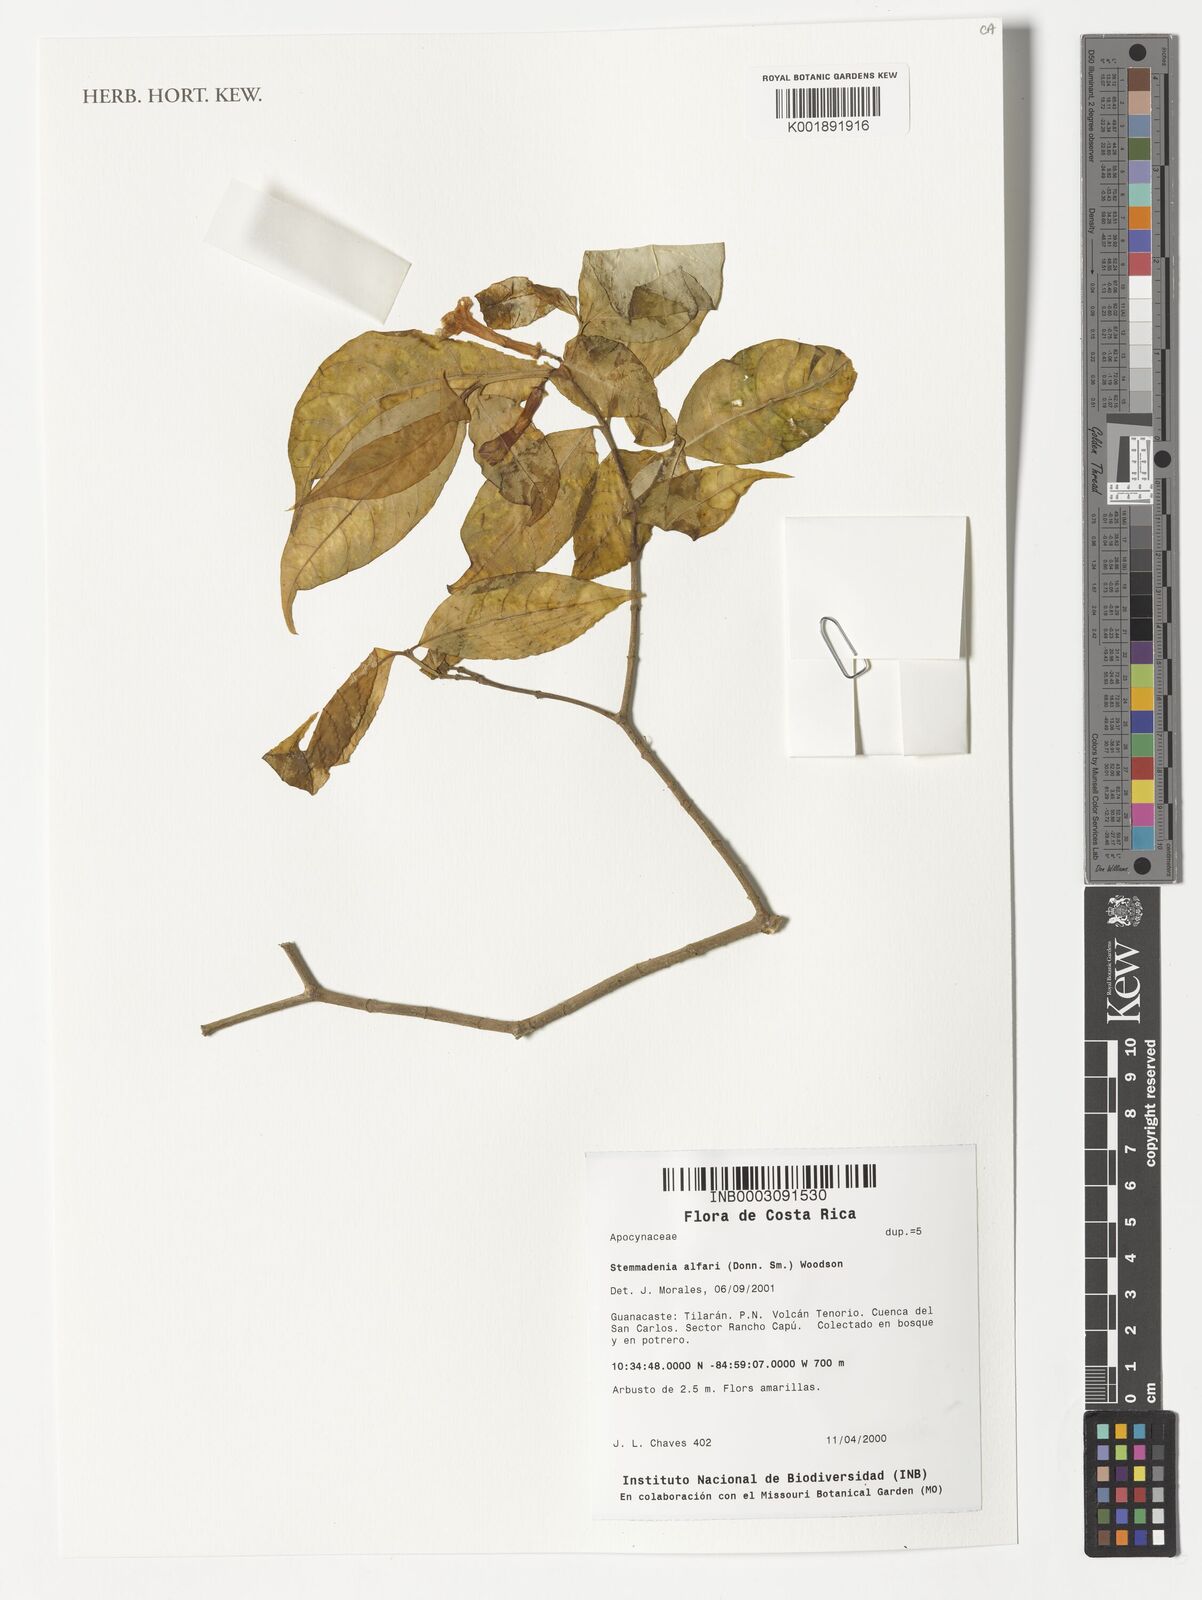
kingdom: Plantae
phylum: Tracheophyta
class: Magnoliopsida
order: Gentianales
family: Apocynaceae
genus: Tabernaemontana
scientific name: Tabernaemontana alfaroi
